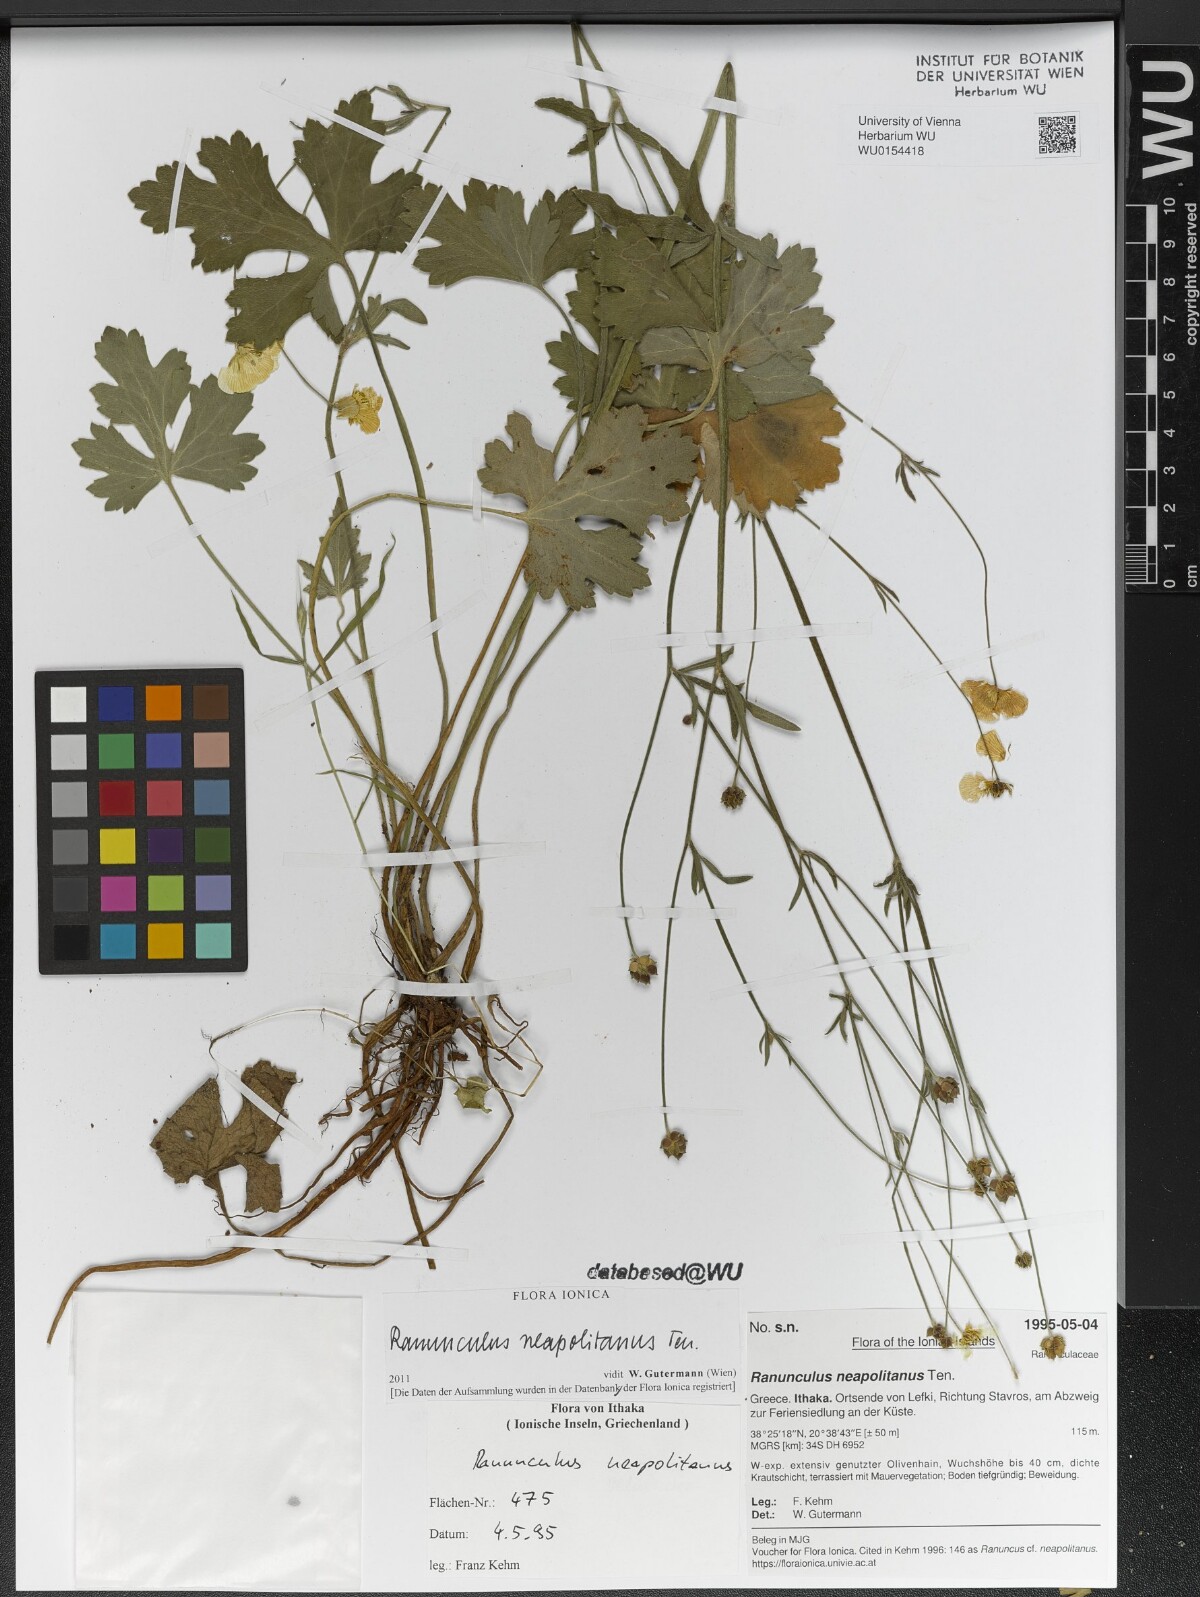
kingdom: Plantae
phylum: Tracheophyta
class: Magnoliopsida
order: Ranunculales
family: Ranunculaceae
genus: Ranunculus
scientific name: Ranunculus neapolitanus
